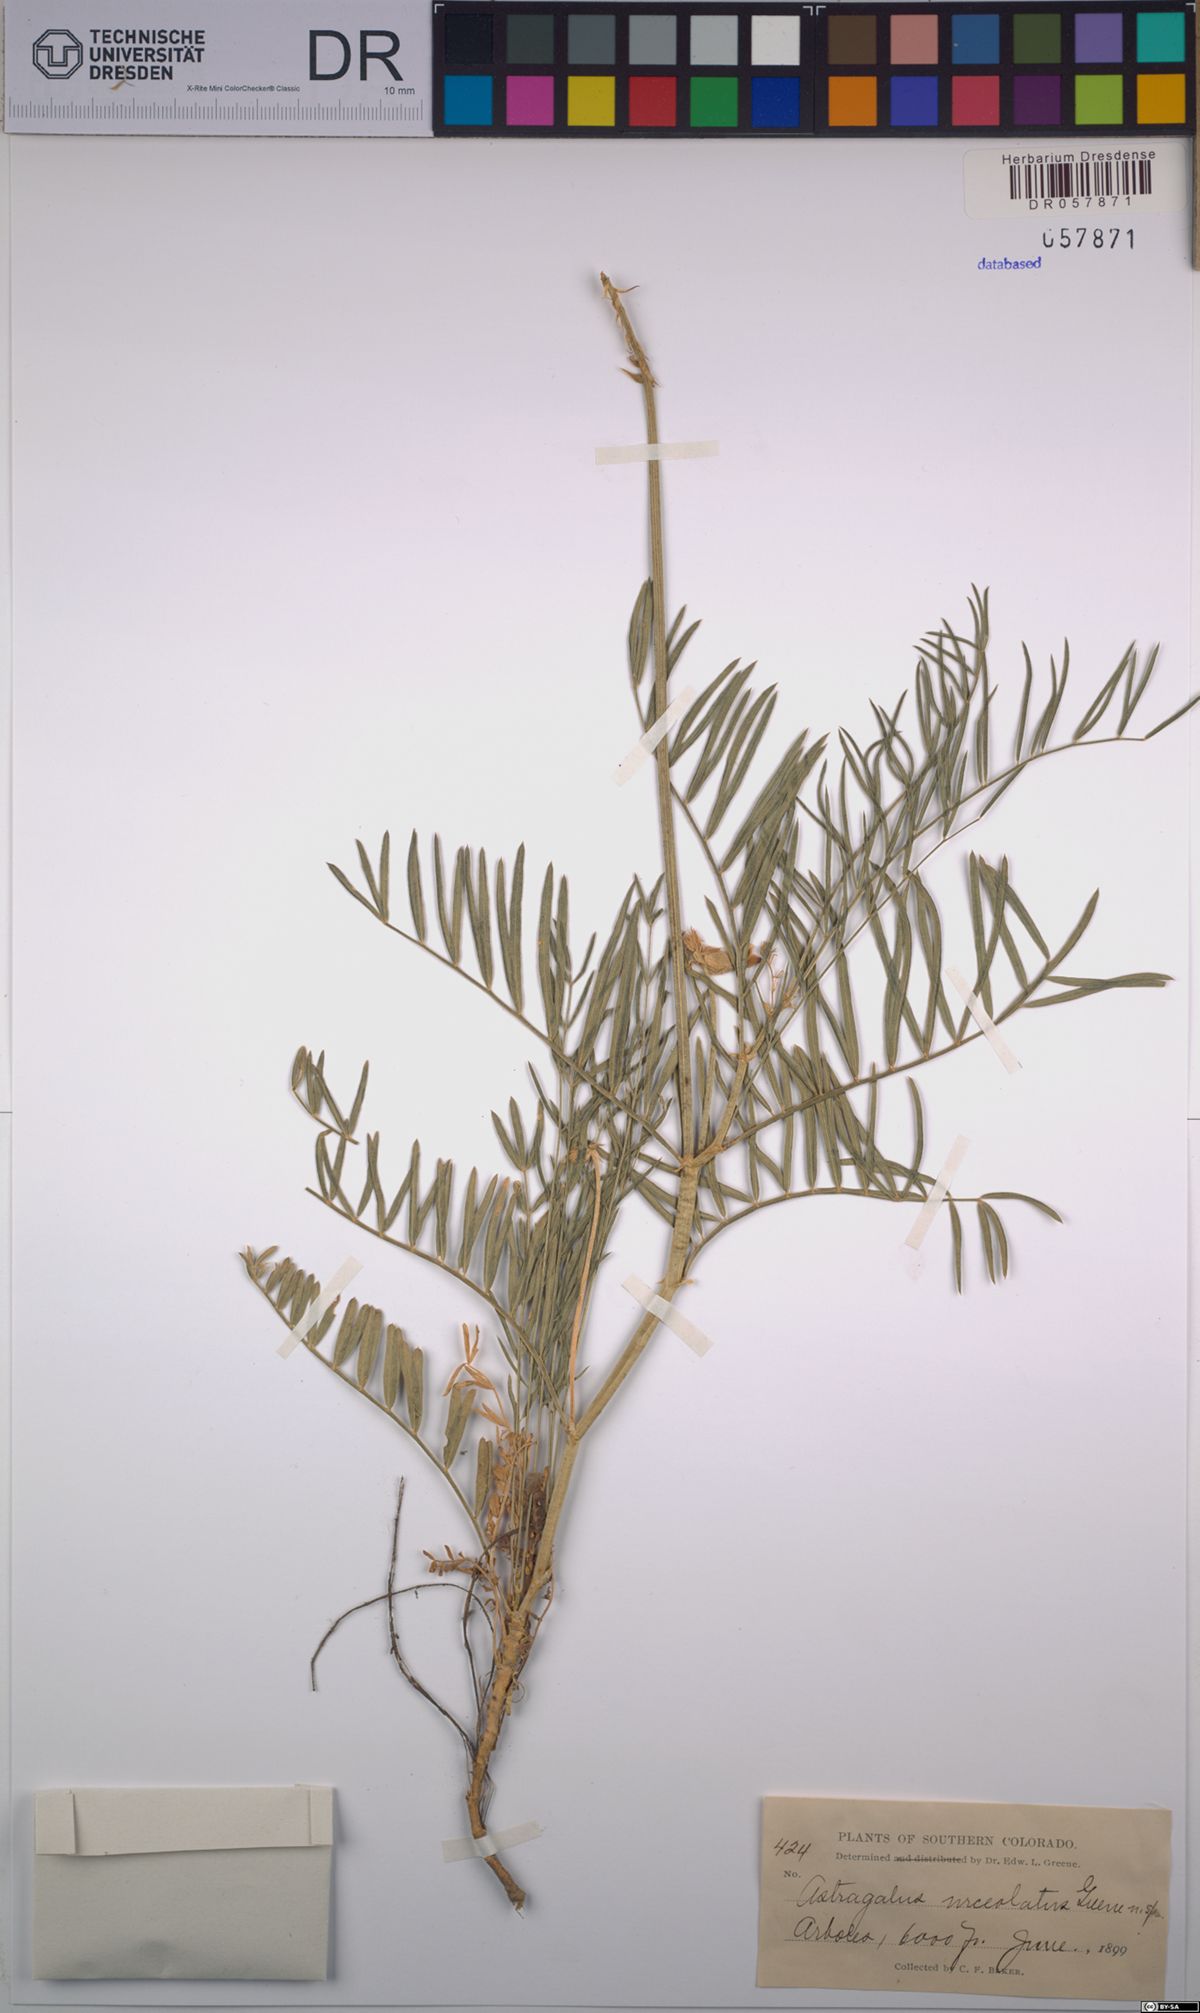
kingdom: Plantae
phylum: Tracheophyta
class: Magnoliopsida
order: Fabales
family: Fabaceae
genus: Astragalus
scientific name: Astragalus oocalycis
